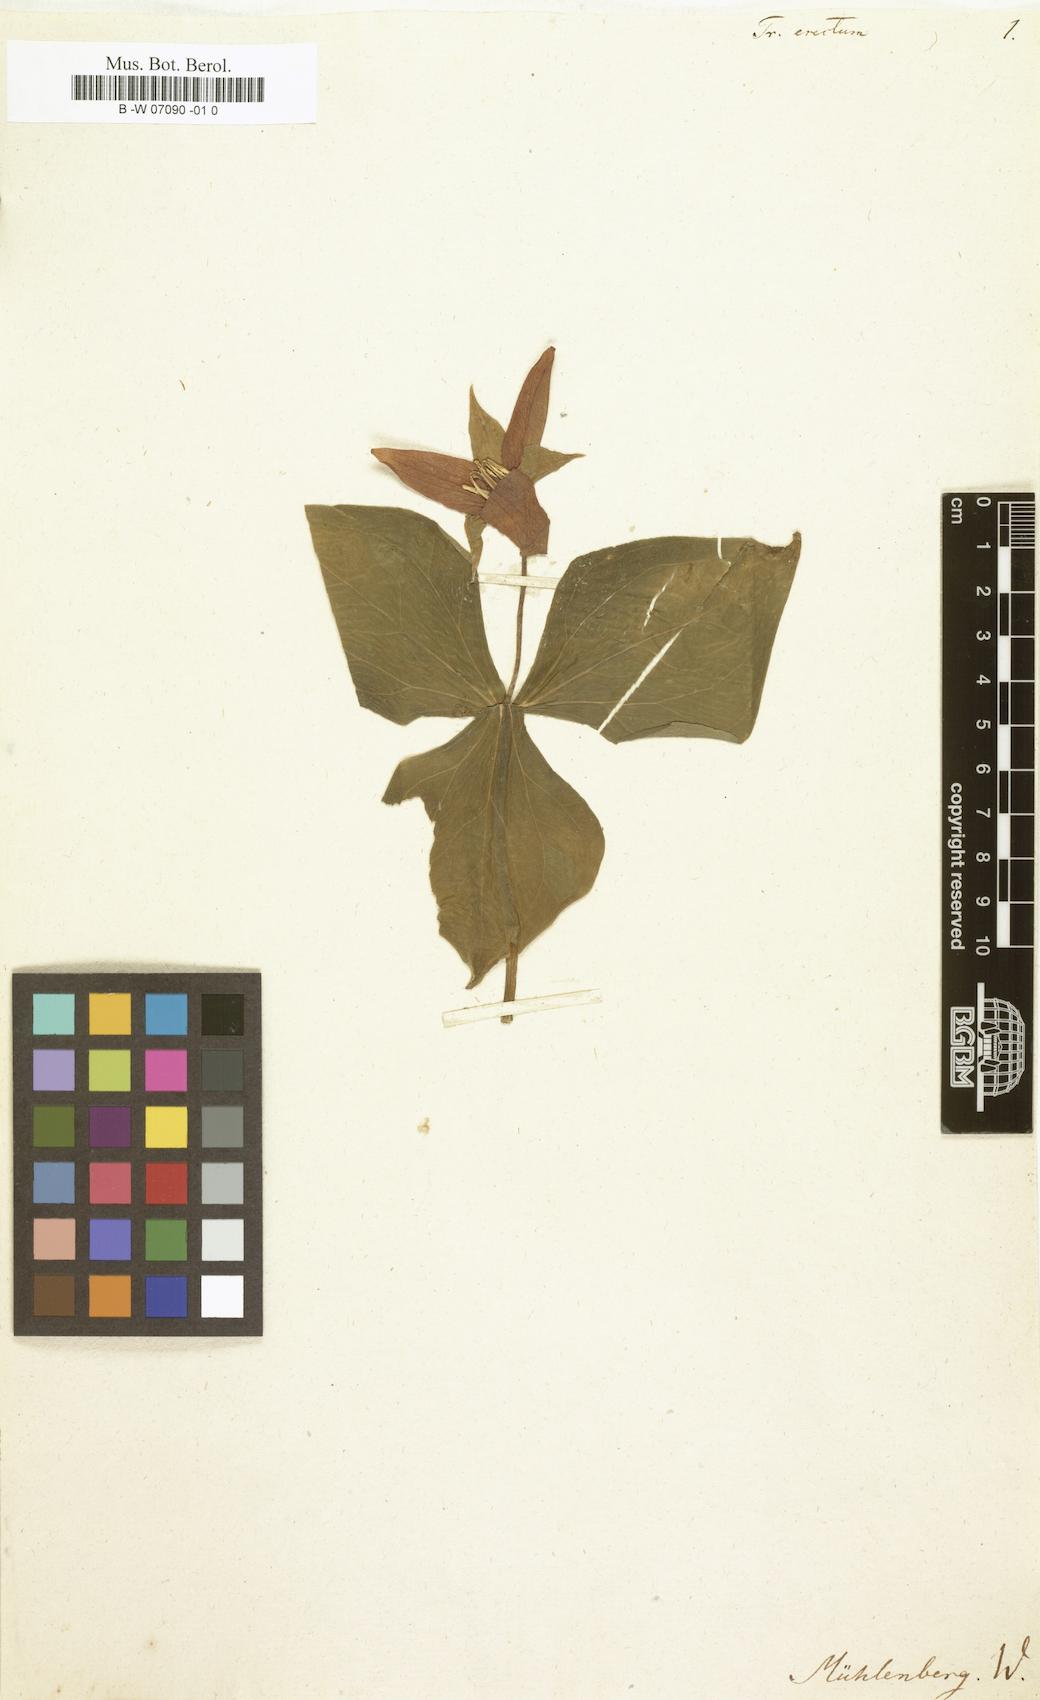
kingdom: Plantae
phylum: Tracheophyta
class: Liliopsida
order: Liliales
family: Melanthiaceae
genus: Trillium
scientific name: Trillium erectum
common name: Purple trillium
